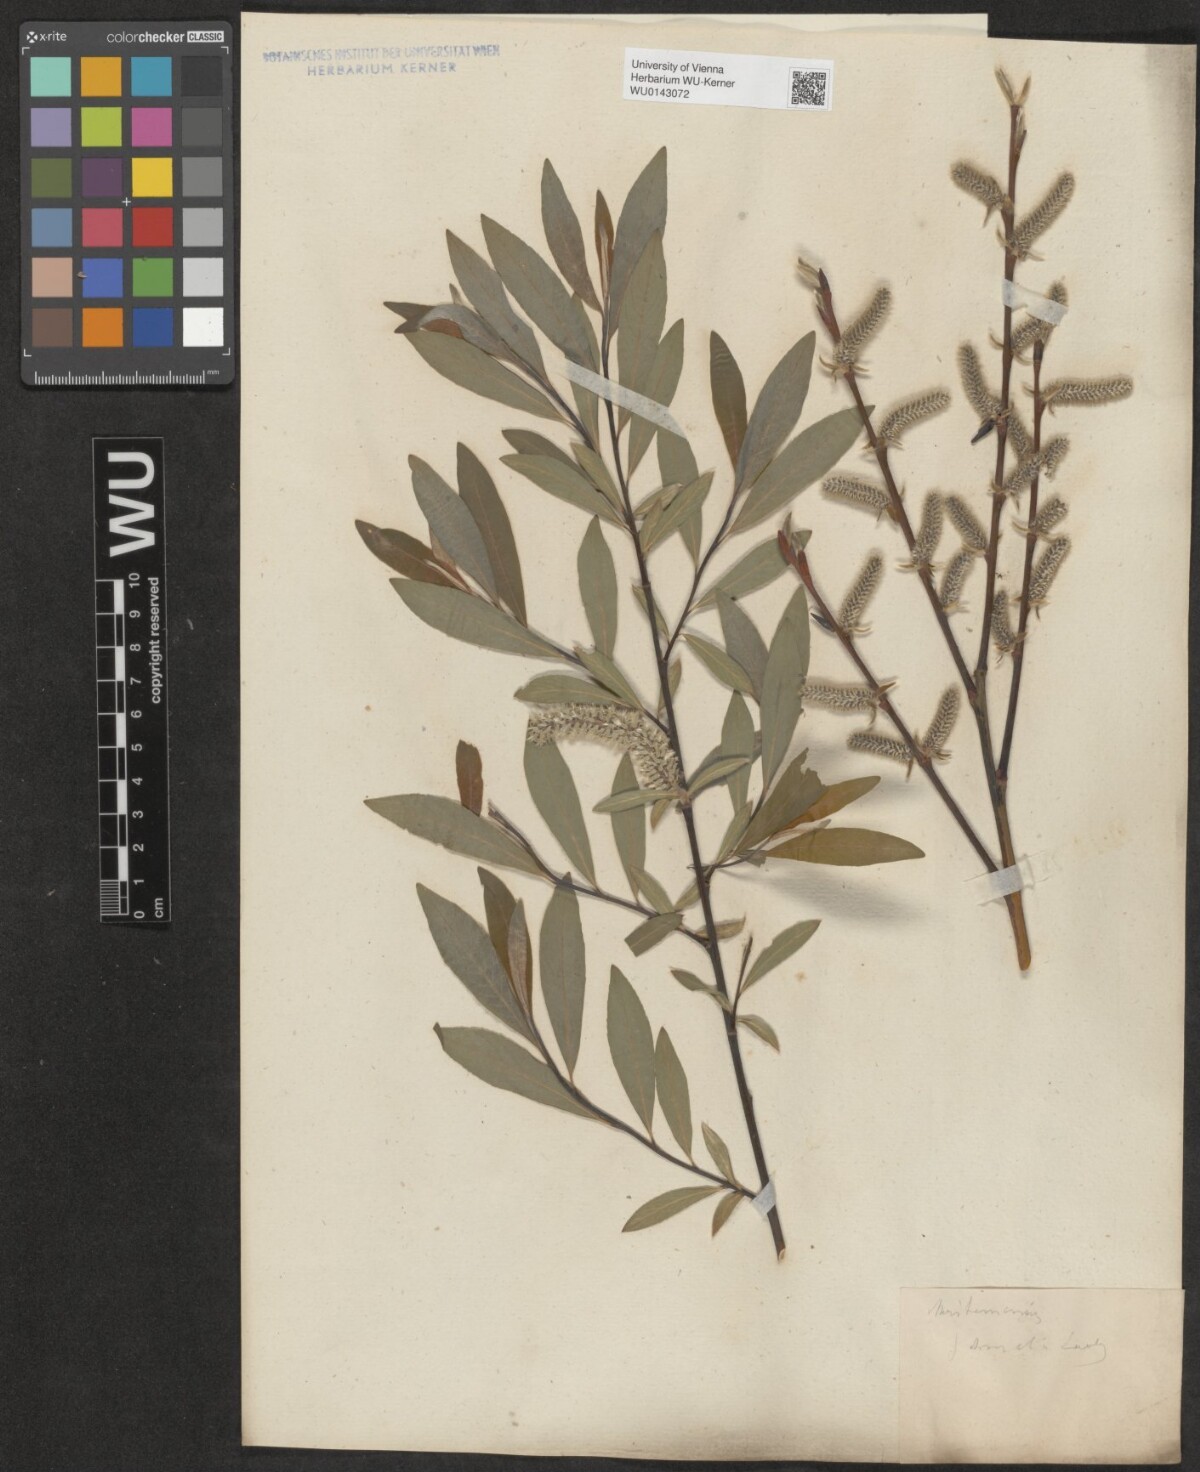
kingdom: Plantae
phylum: Tracheophyta
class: Magnoliopsida
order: Malpighiales
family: Salicaceae
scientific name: Salicaceae
